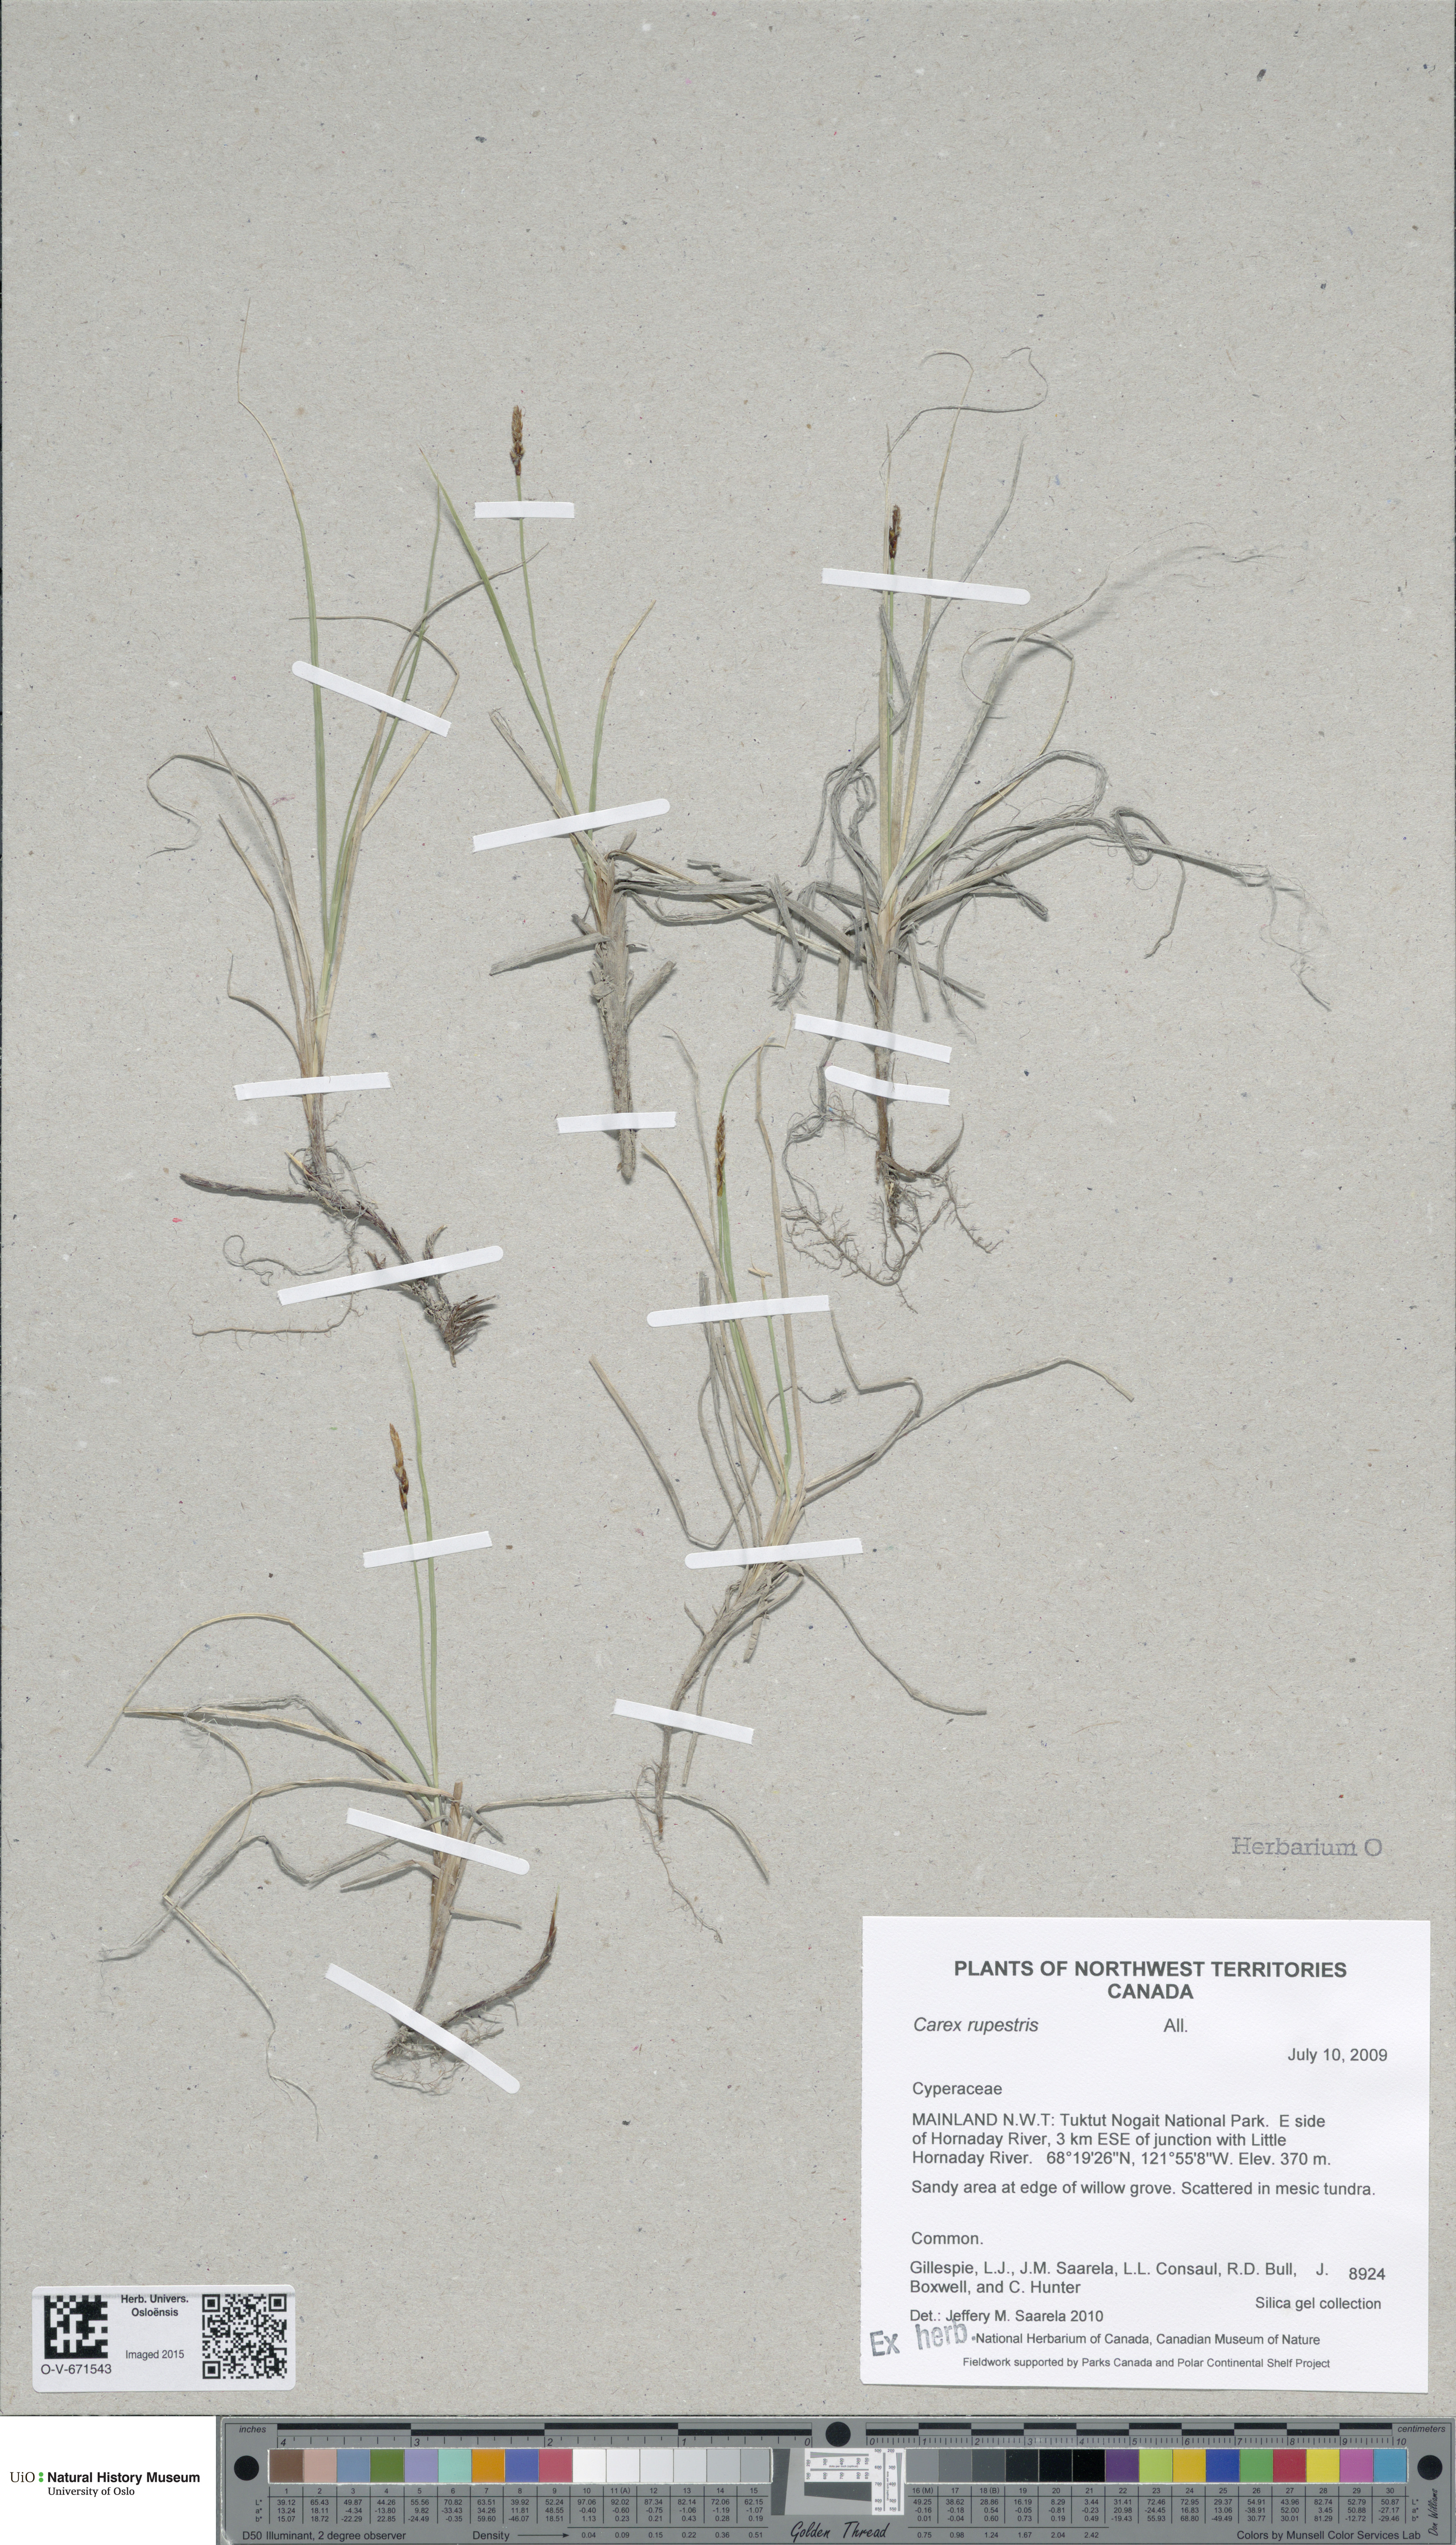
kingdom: Plantae
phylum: Tracheophyta
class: Liliopsida
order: Poales
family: Cyperaceae
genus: Carex
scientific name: Carex rupestris
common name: Rock sedge
